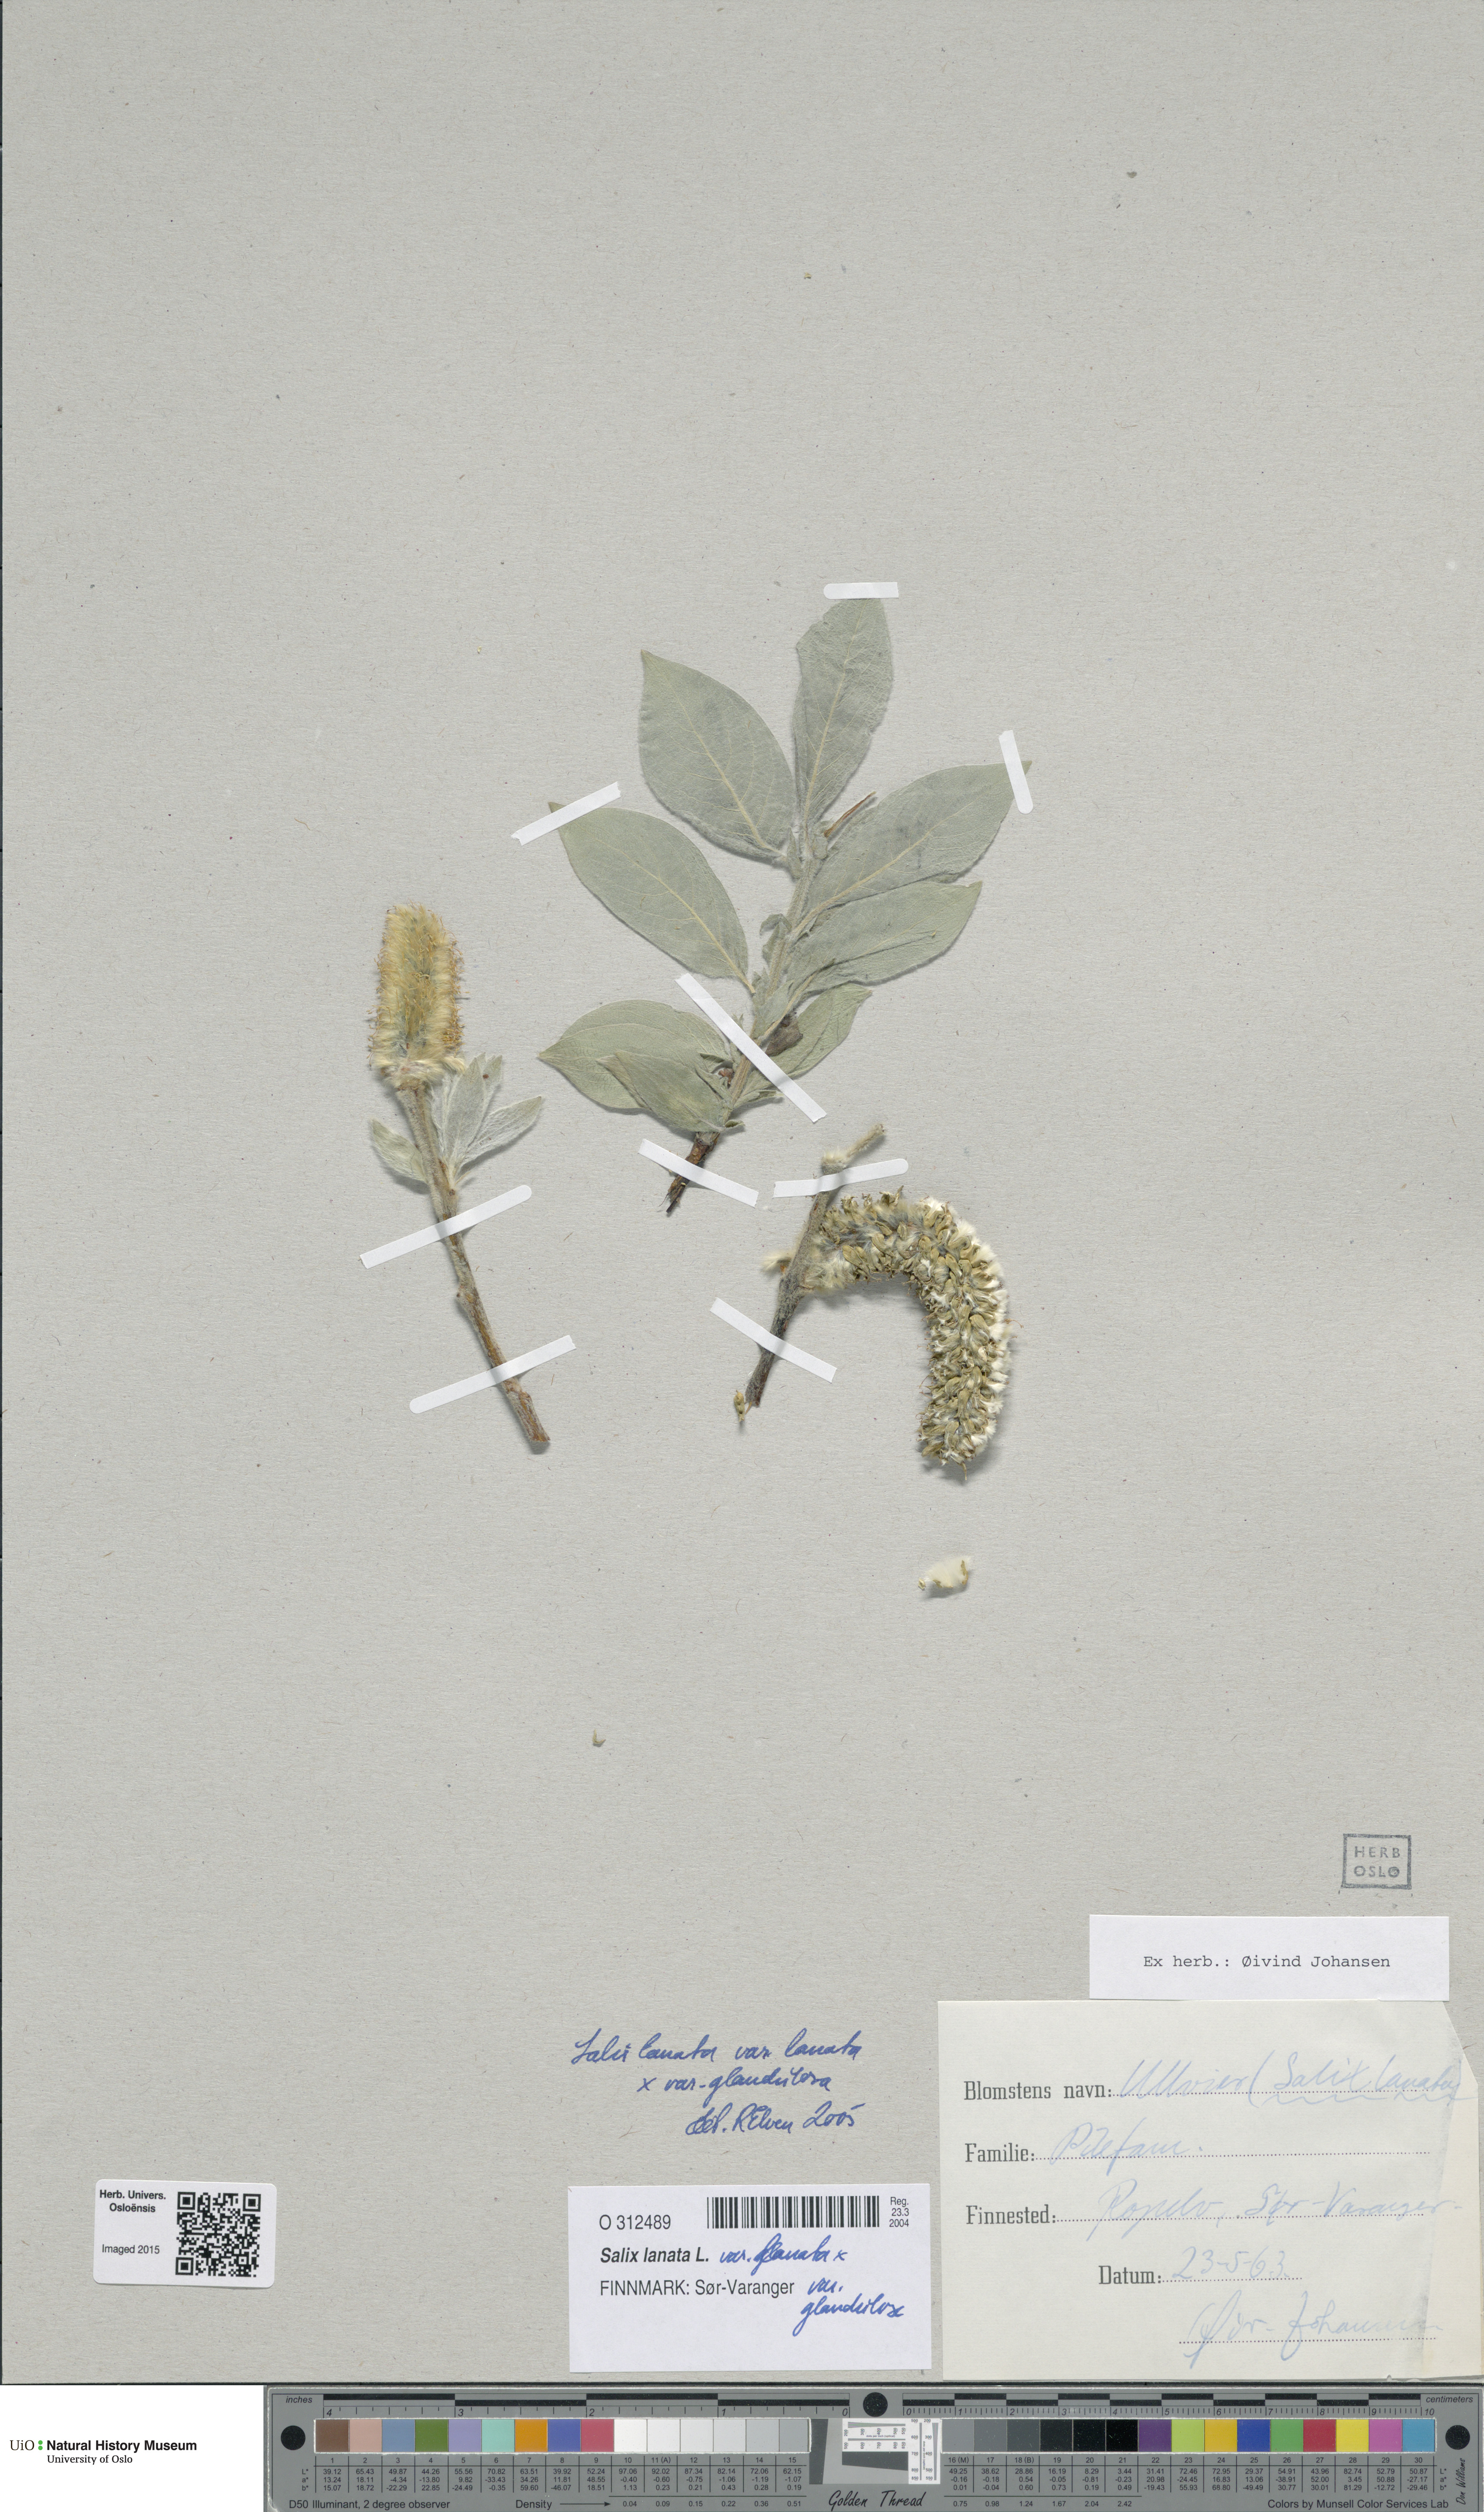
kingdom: Plantae
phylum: Tracheophyta
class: Magnoliopsida
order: Malpighiales
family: Salicaceae
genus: Salix
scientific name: Salix
